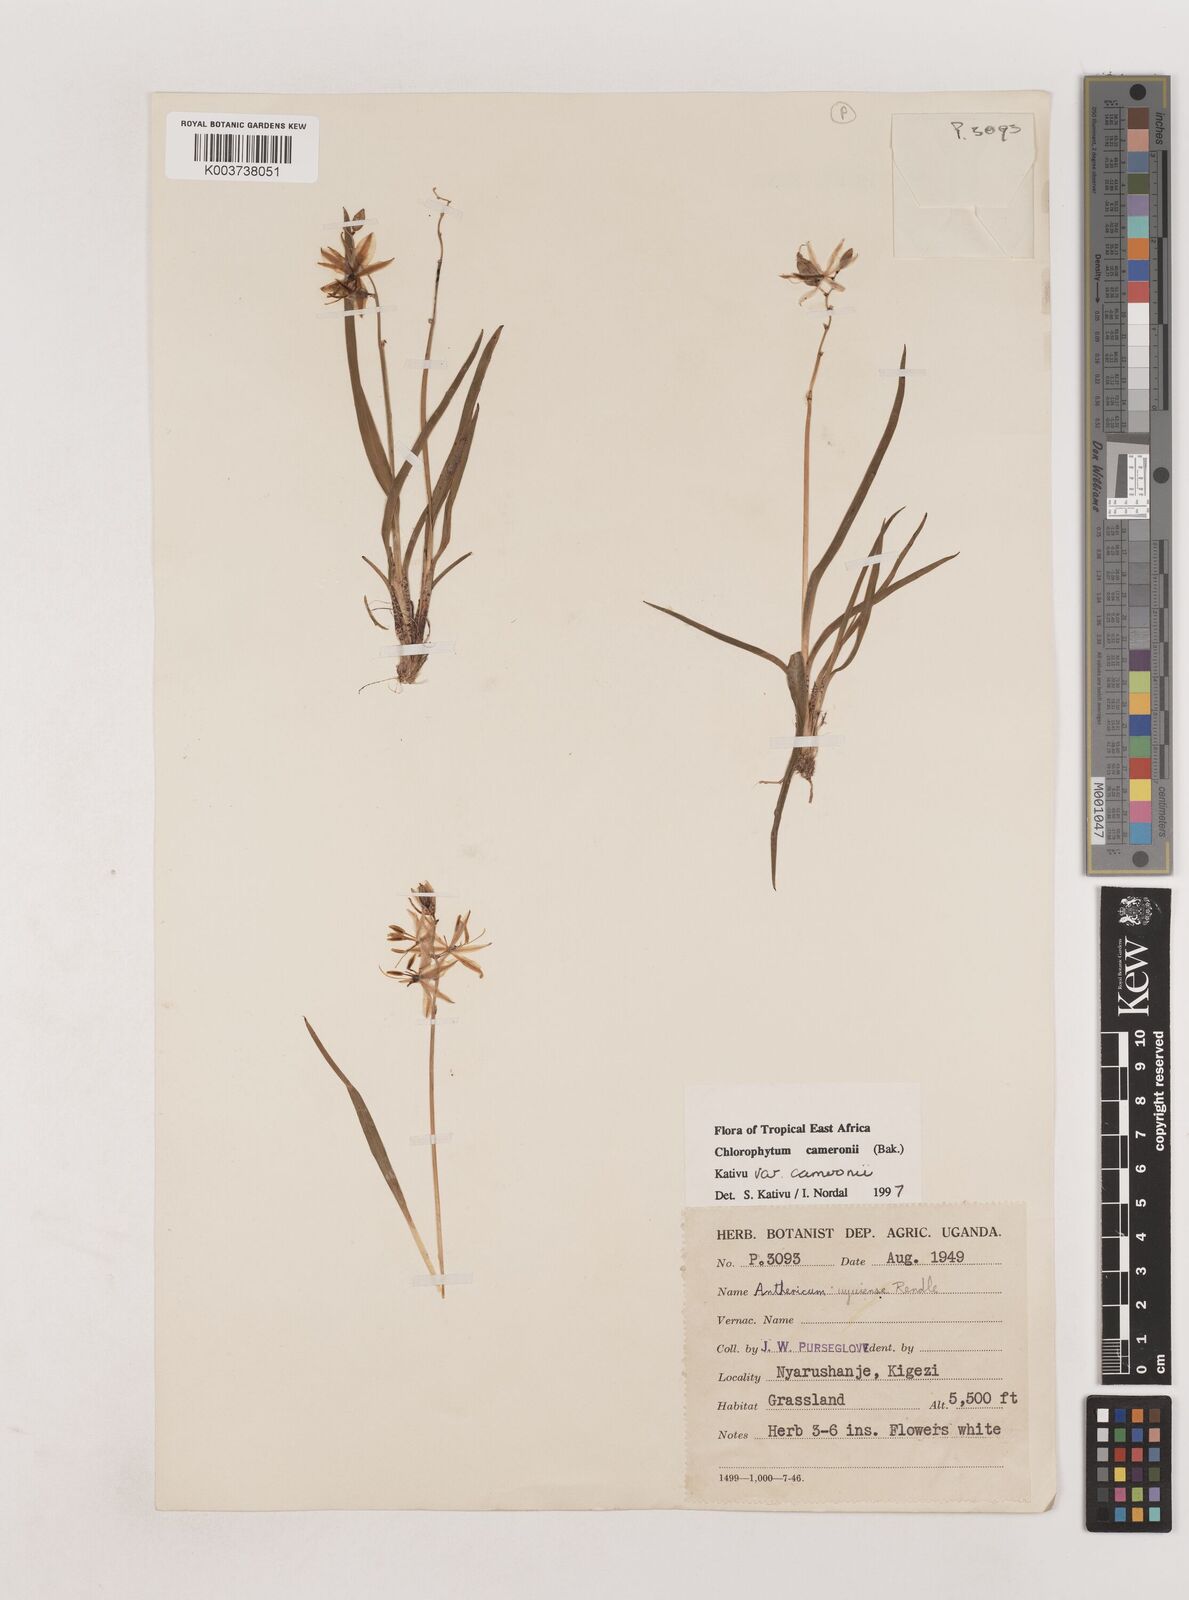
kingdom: Plantae
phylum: Tracheophyta
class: Liliopsida
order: Asparagales
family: Asparagaceae
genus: Chlorophytum
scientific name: Chlorophytum cameronii
